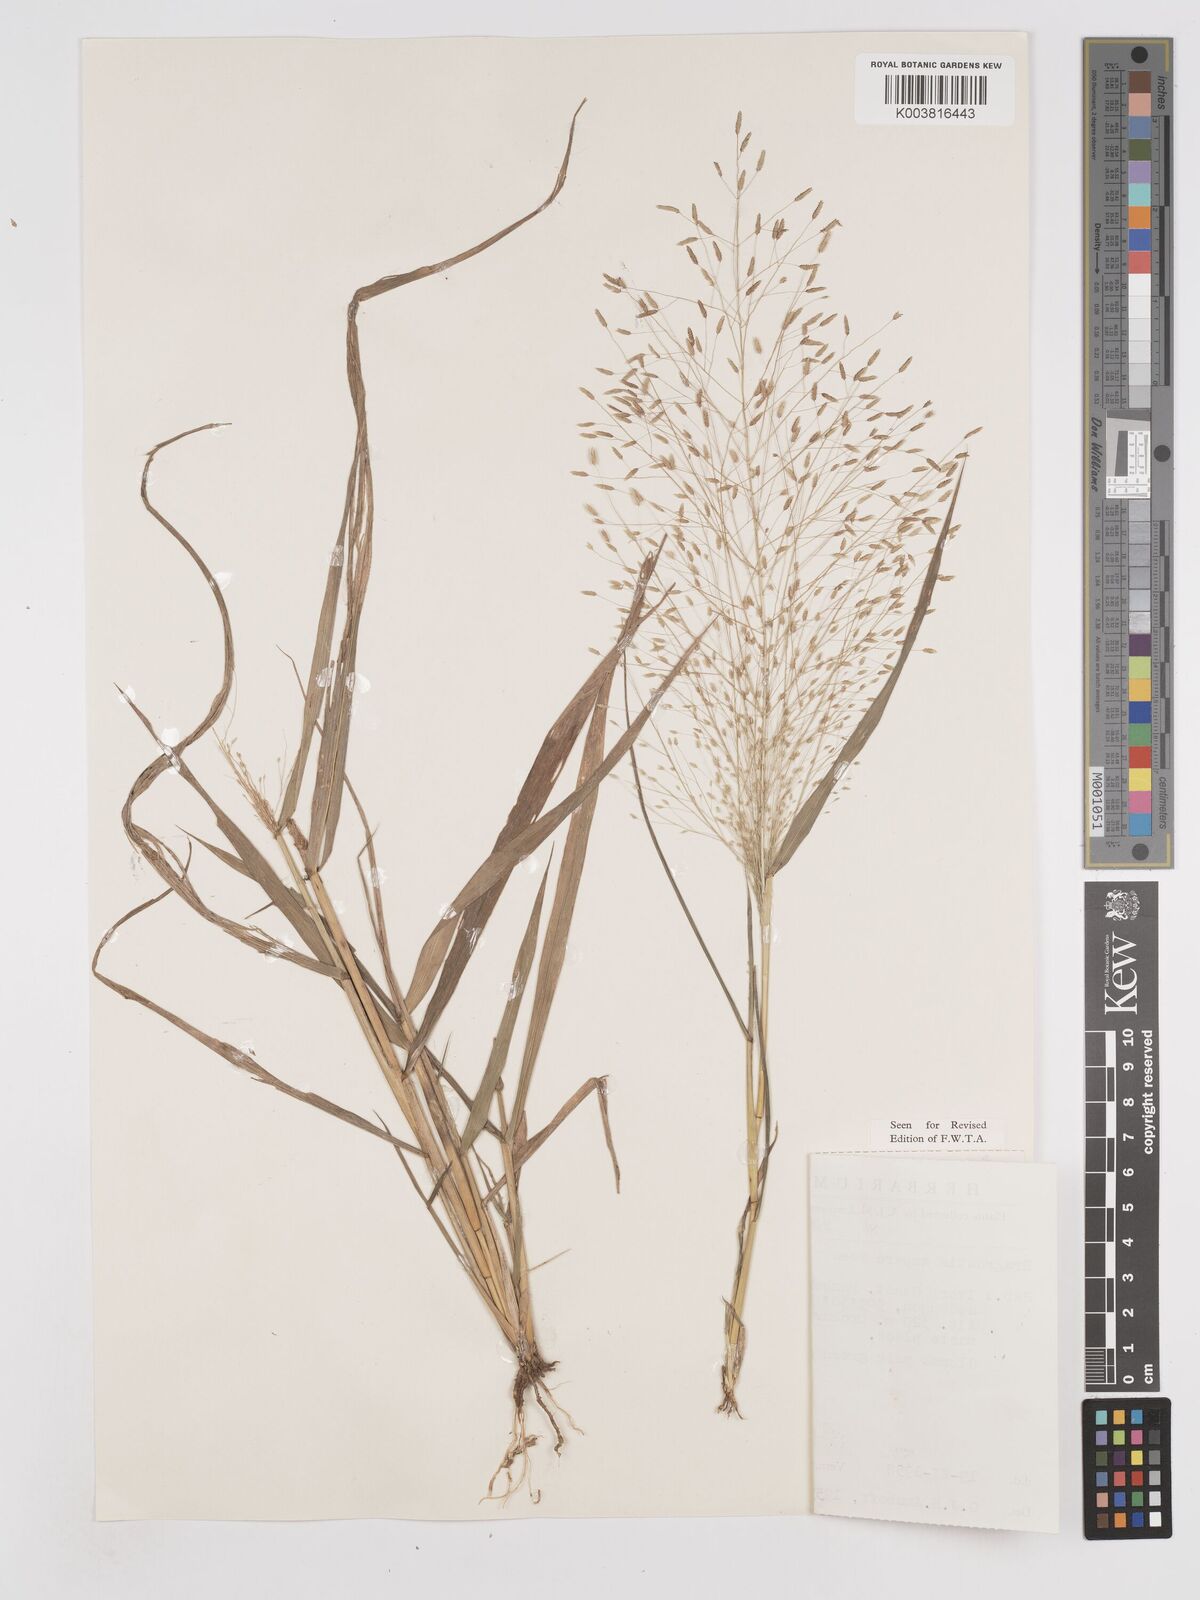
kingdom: Plantae
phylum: Tracheophyta
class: Liliopsida
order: Poales
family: Poaceae
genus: Eragrostis
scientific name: Eragrostis aspera
